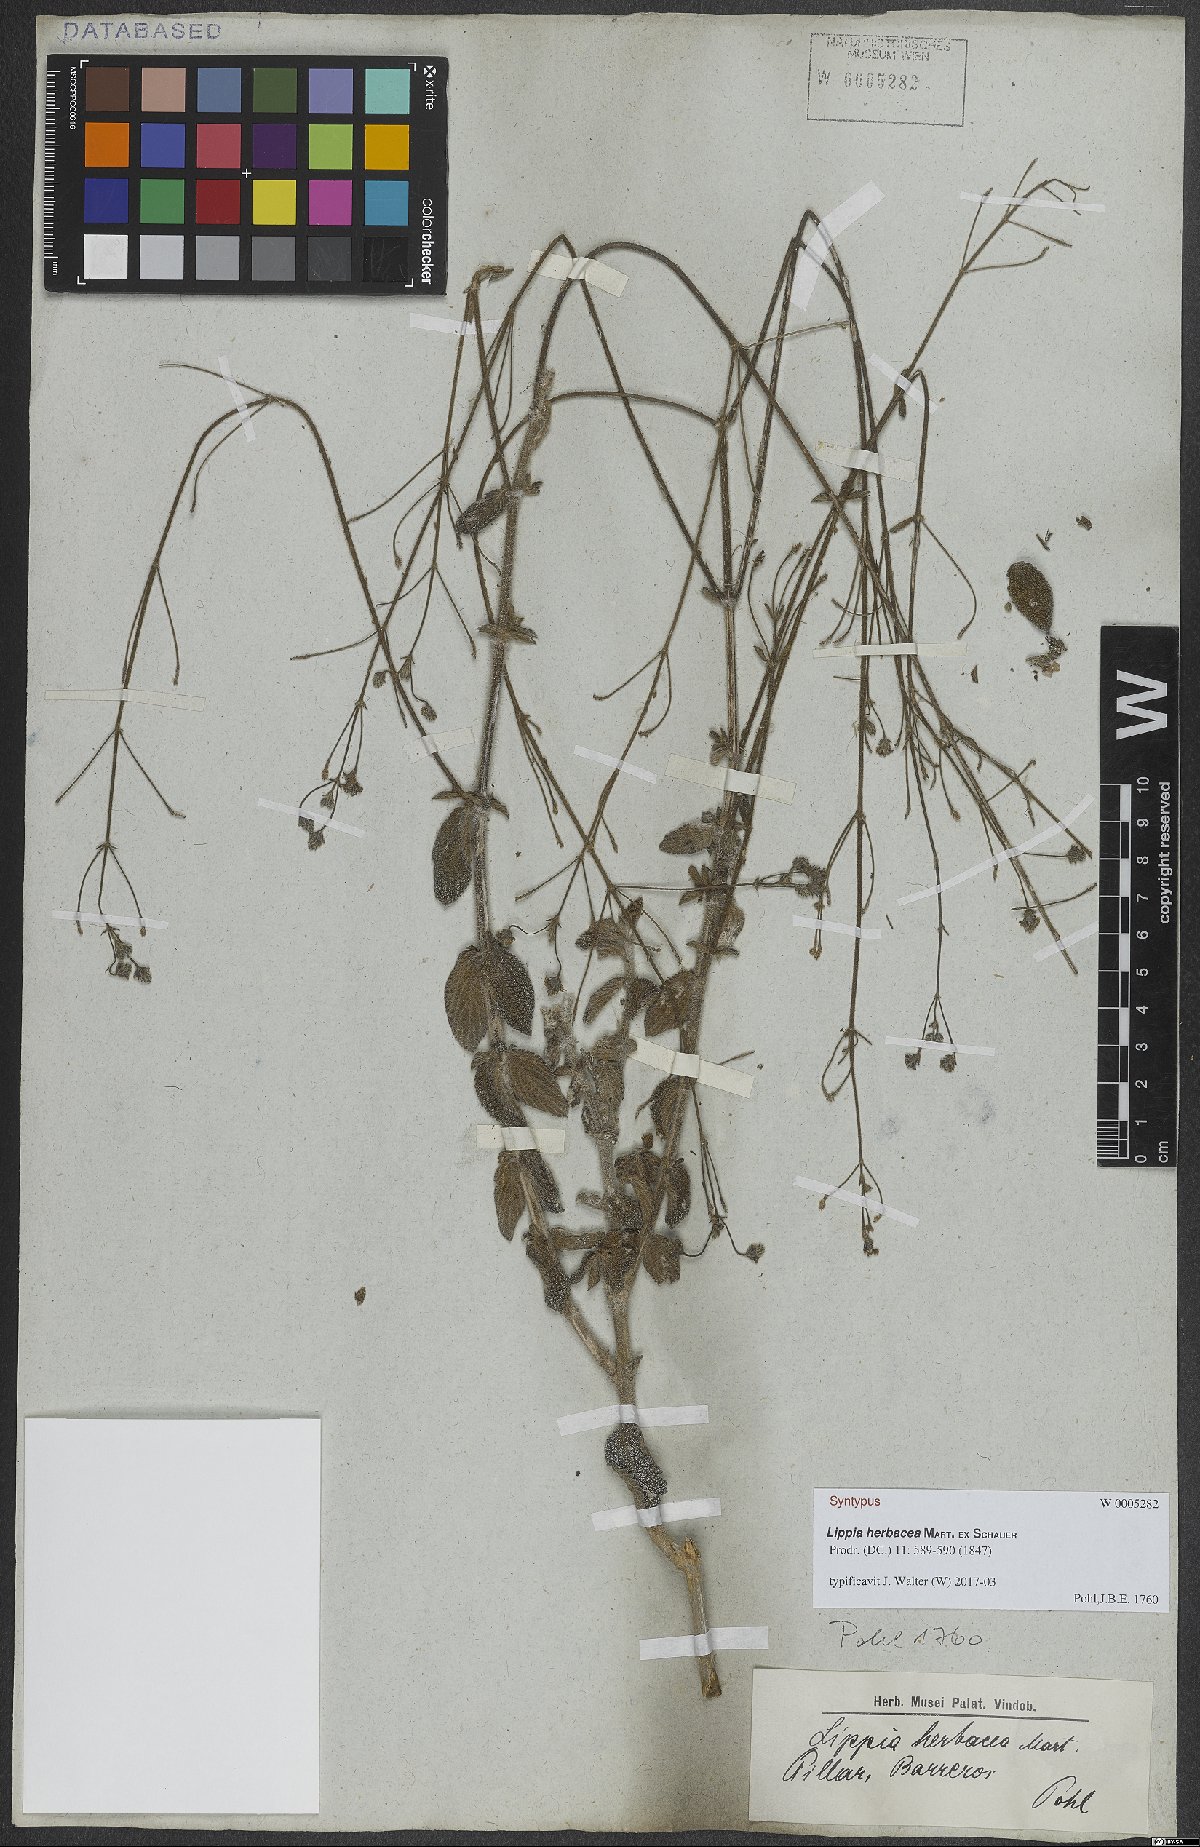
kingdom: Plantae
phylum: Tracheophyta
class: Magnoliopsida
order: Lamiales
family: Verbenaceae
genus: Lippia
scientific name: Lippia herbacea
